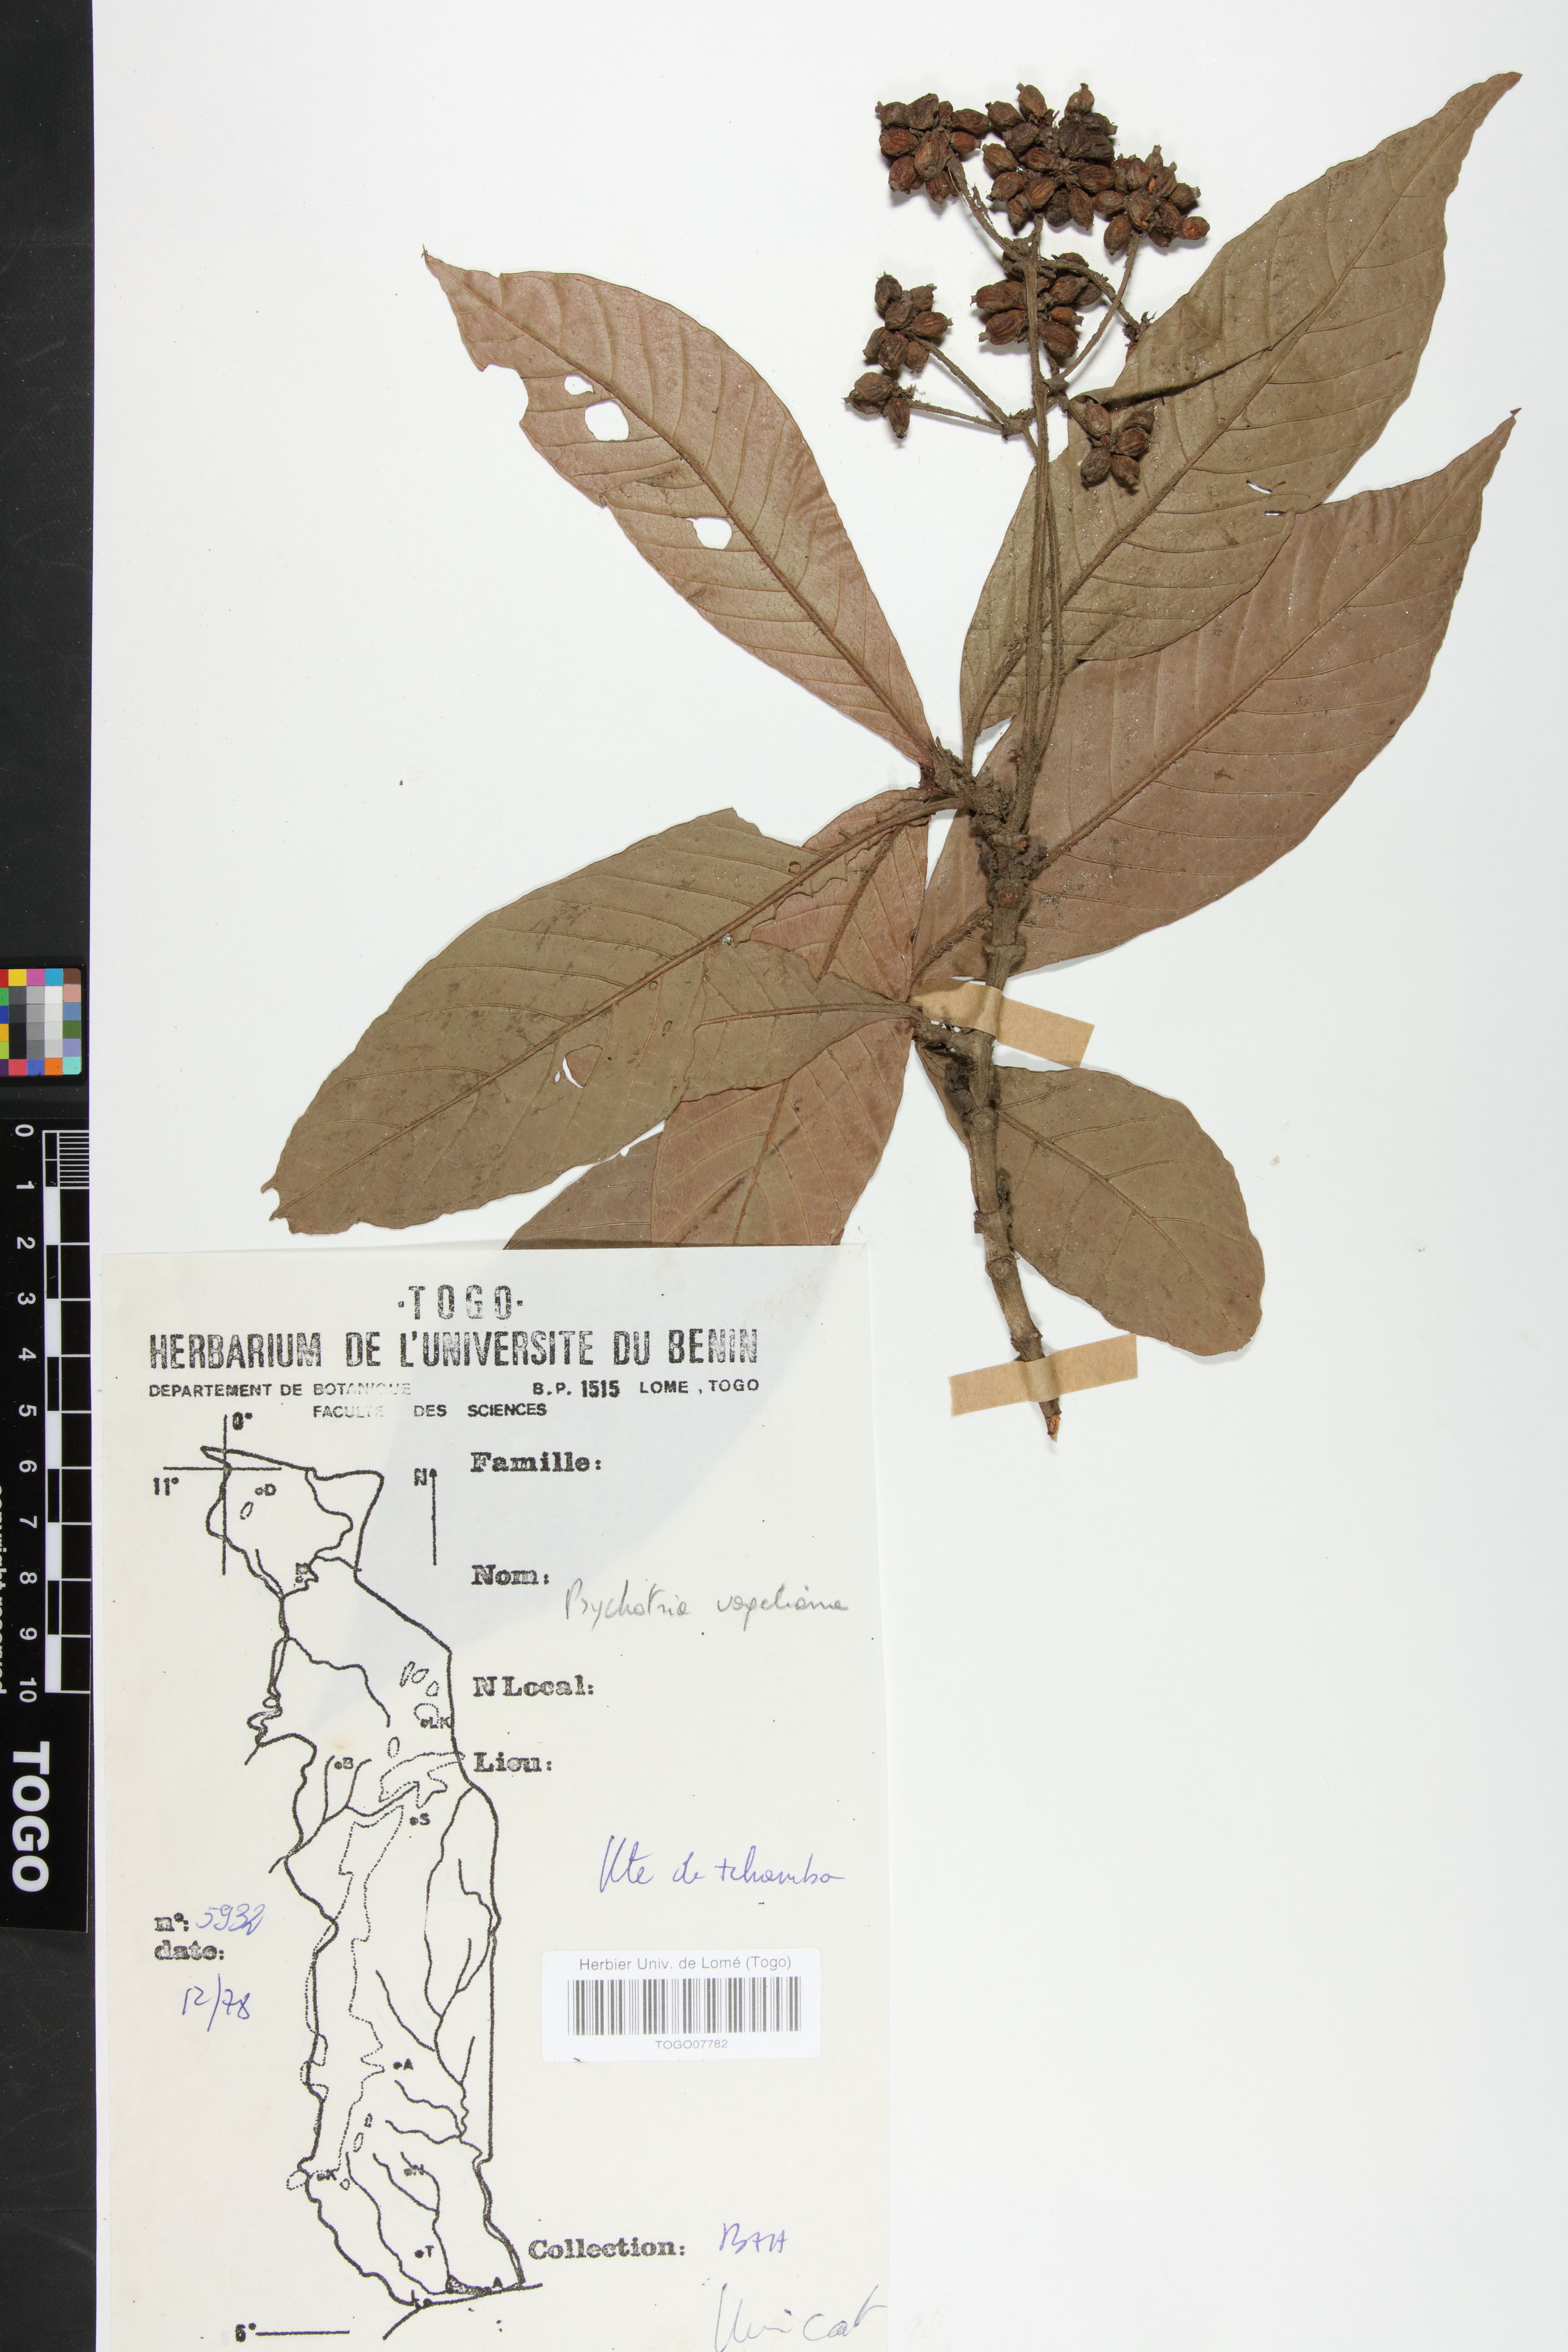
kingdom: Plantae
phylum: Tracheophyta
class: Magnoliopsida
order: Gentianales
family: Rubiaceae
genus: Psychotria
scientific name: Psychotria vogeliana
